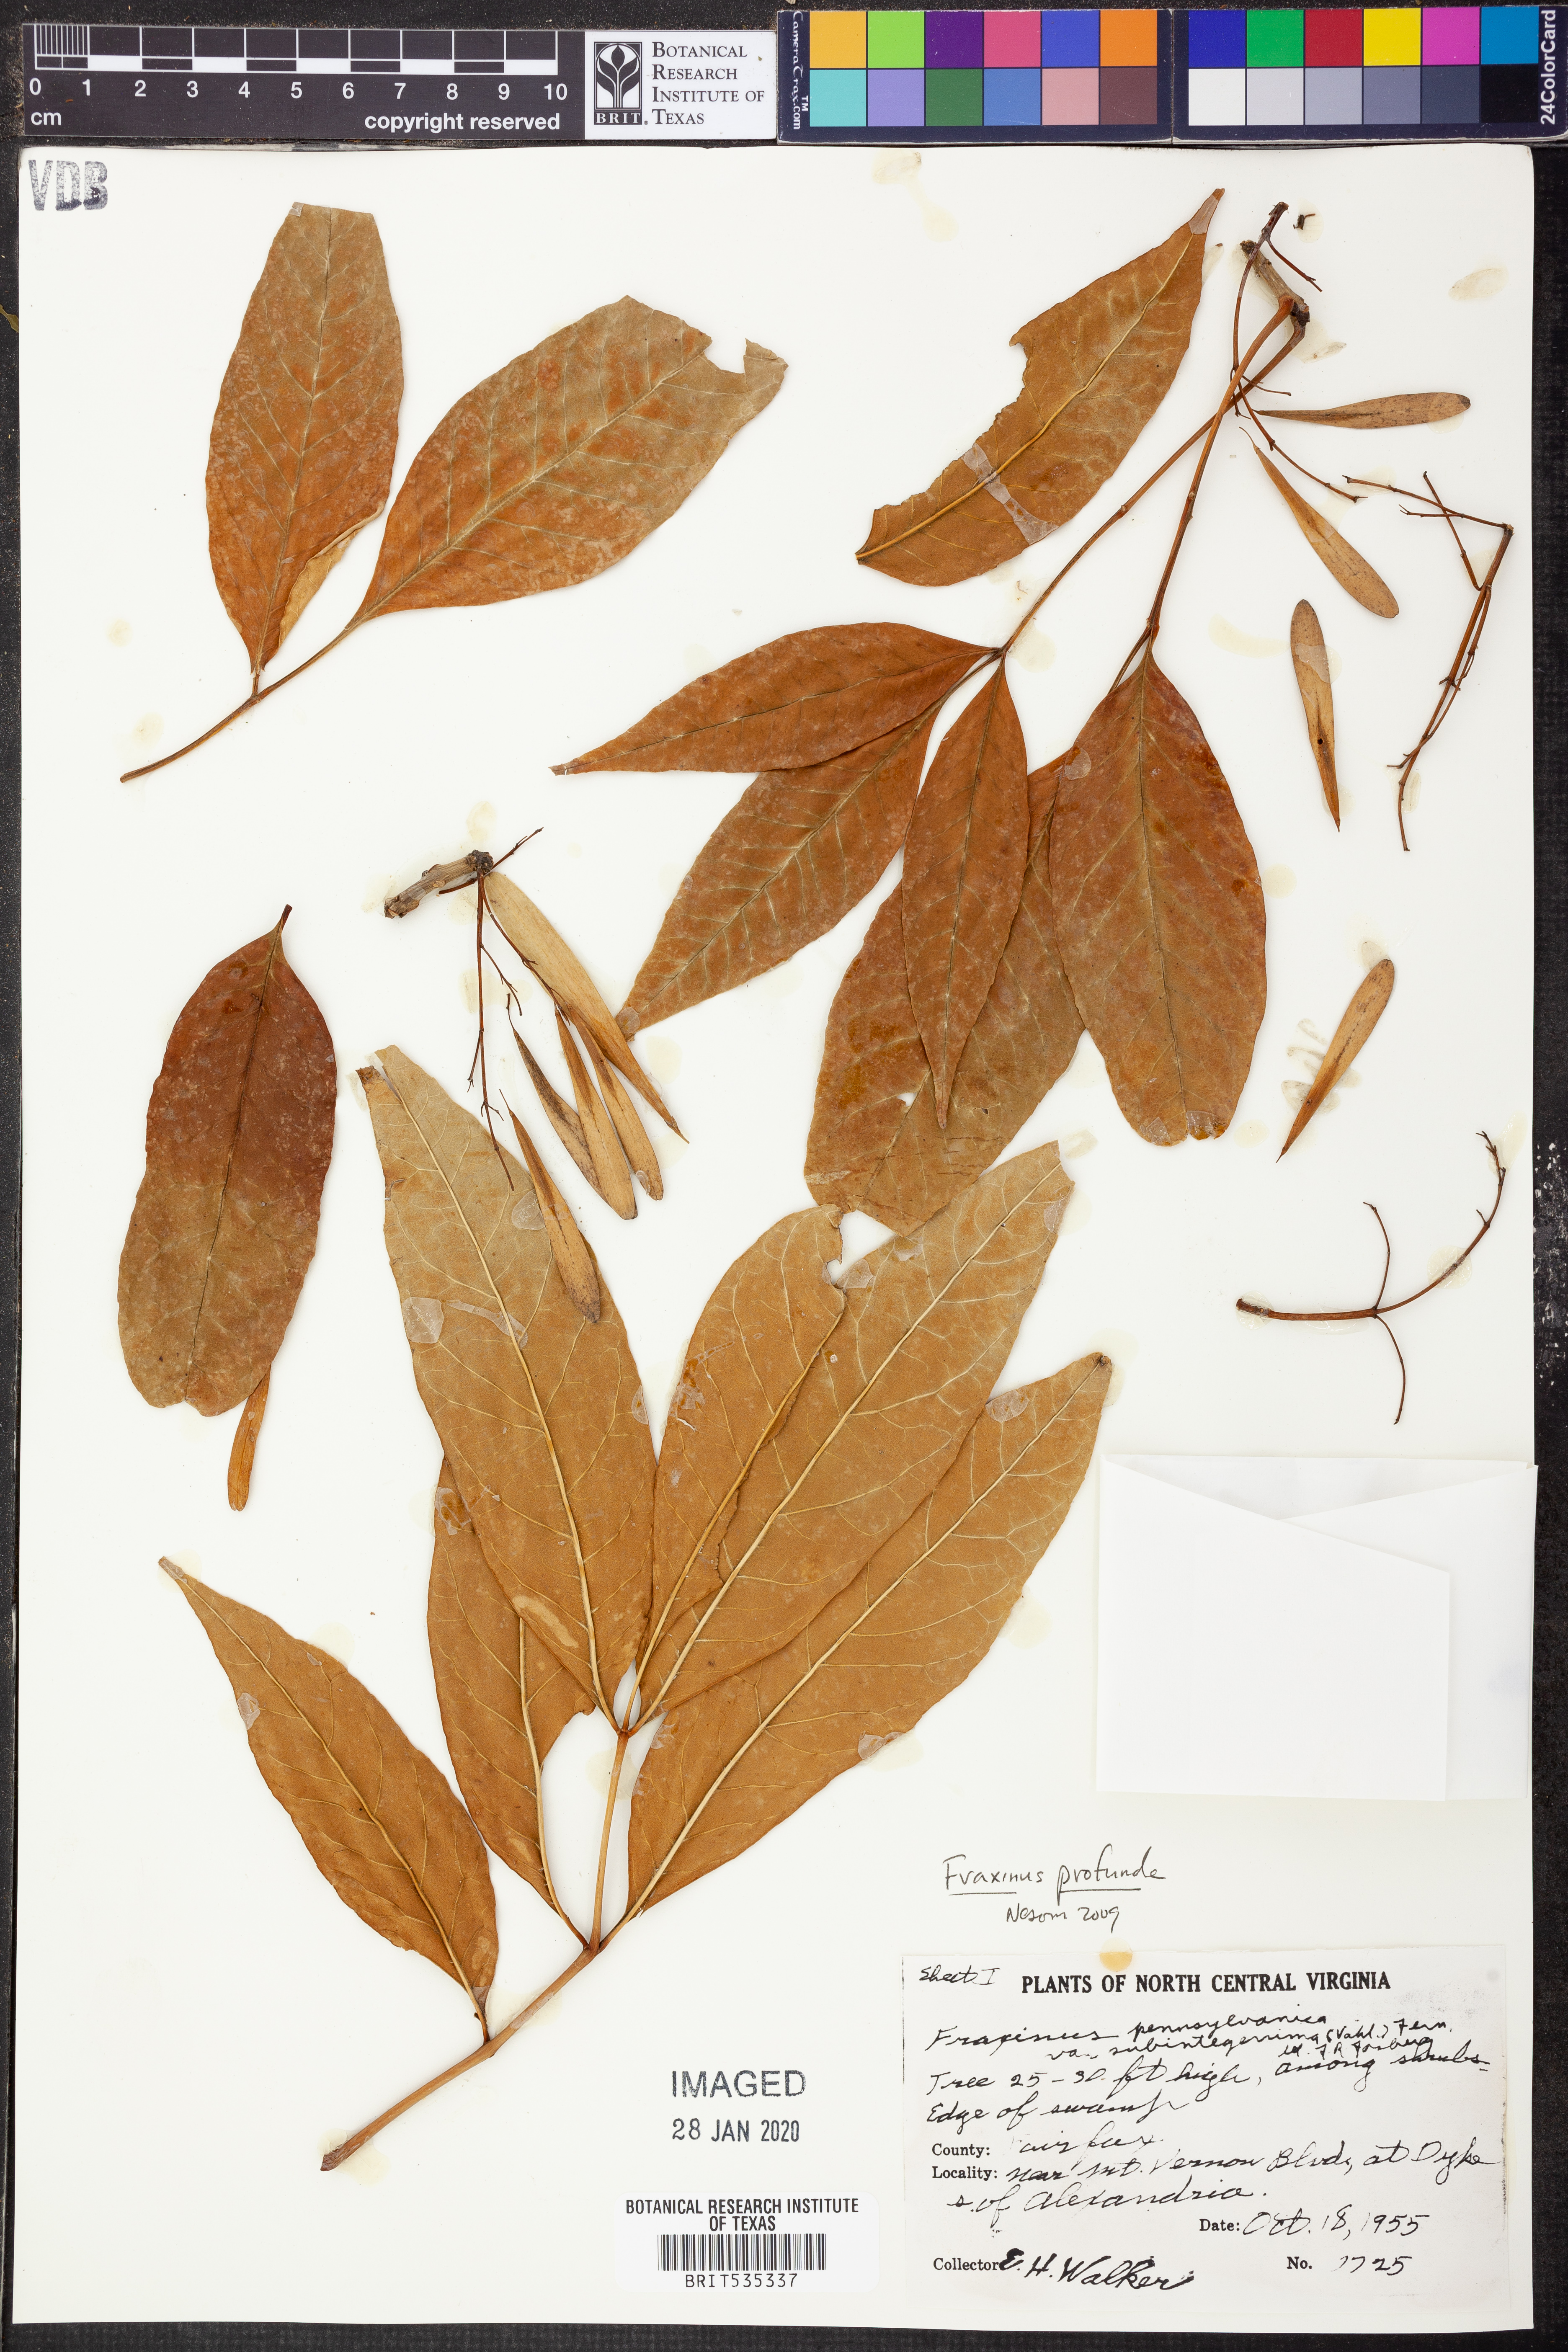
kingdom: Plantae
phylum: Tracheophyta
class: Magnoliopsida
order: Lamiales
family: Oleaceae
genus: Fraxinus
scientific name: Fraxinus profunda
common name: Pumpkin ash
